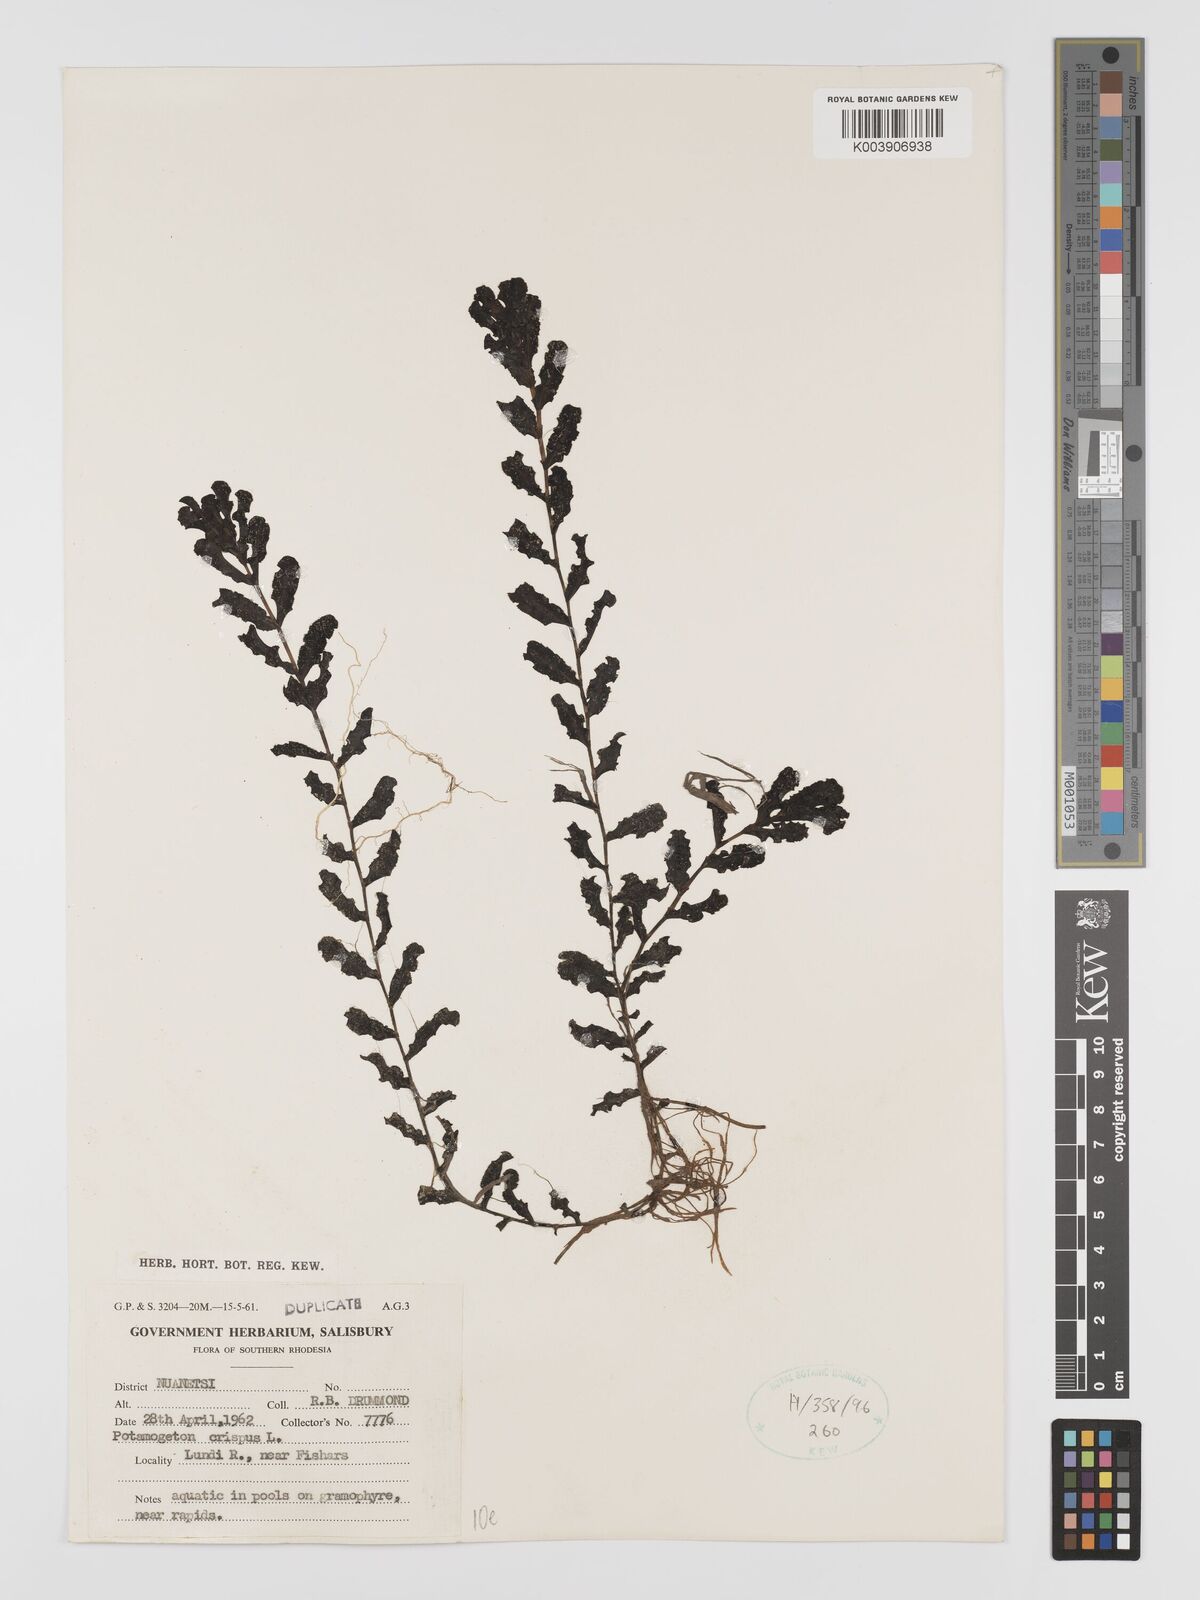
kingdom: Plantae
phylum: Tracheophyta
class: Liliopsida
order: Alismatales
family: Potamogetonaceae
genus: Potamogeton
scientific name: Potamogeton crispus
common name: Curled pondweed
